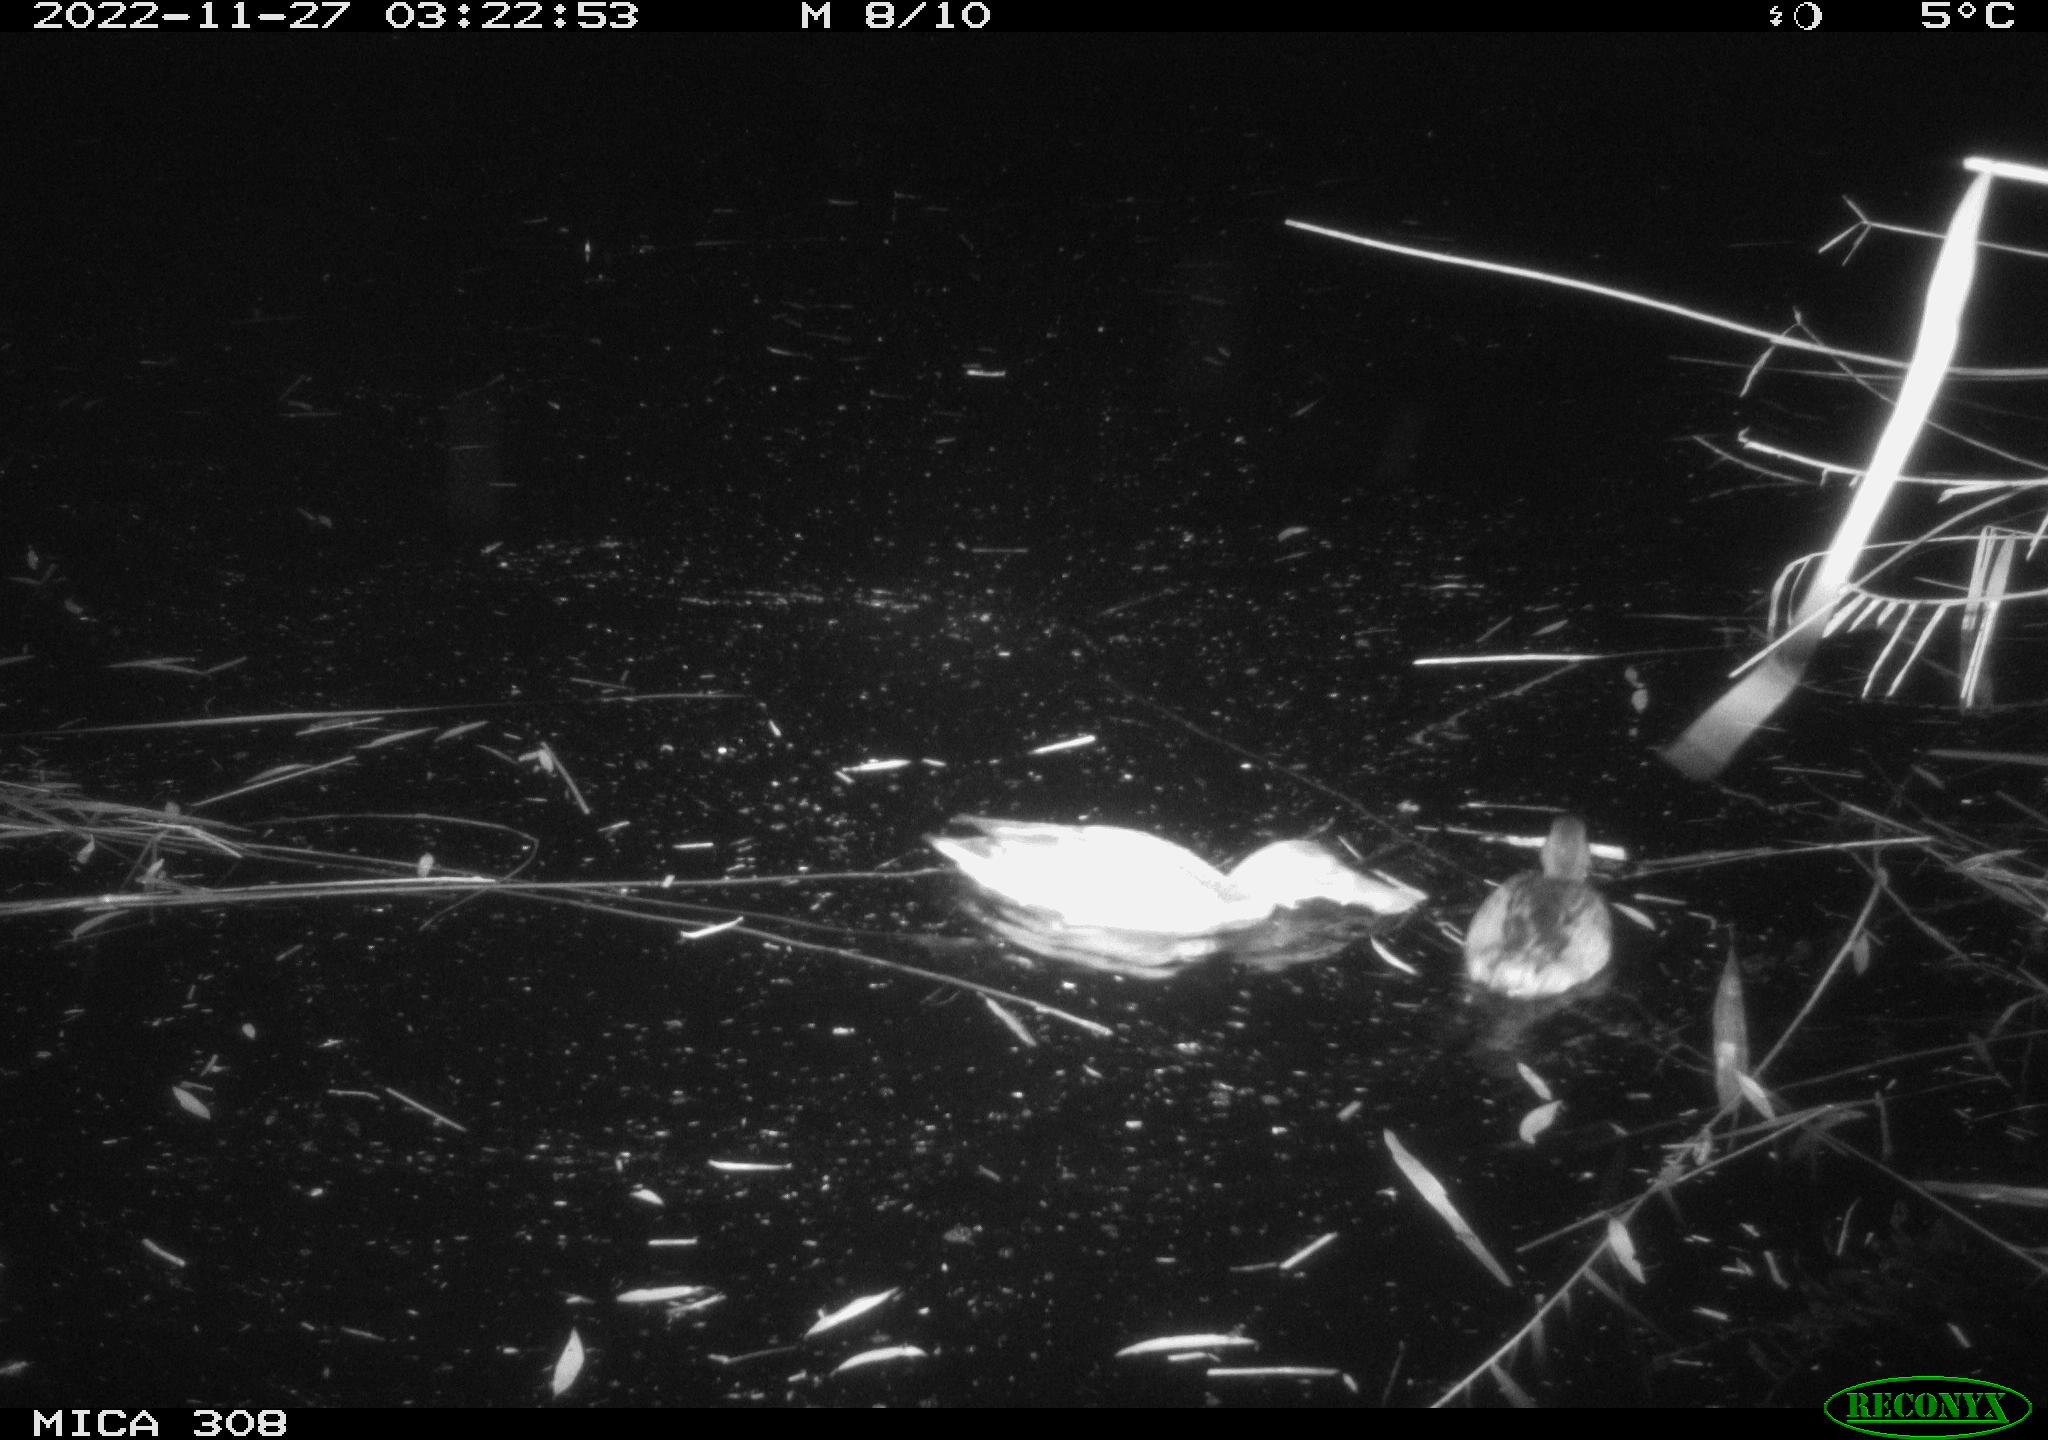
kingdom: Animalia
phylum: Chordata
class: Aves
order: Gruiformes
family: Rallidae
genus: Gallinula
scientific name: Gallinula chloropus
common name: Common moorhen
